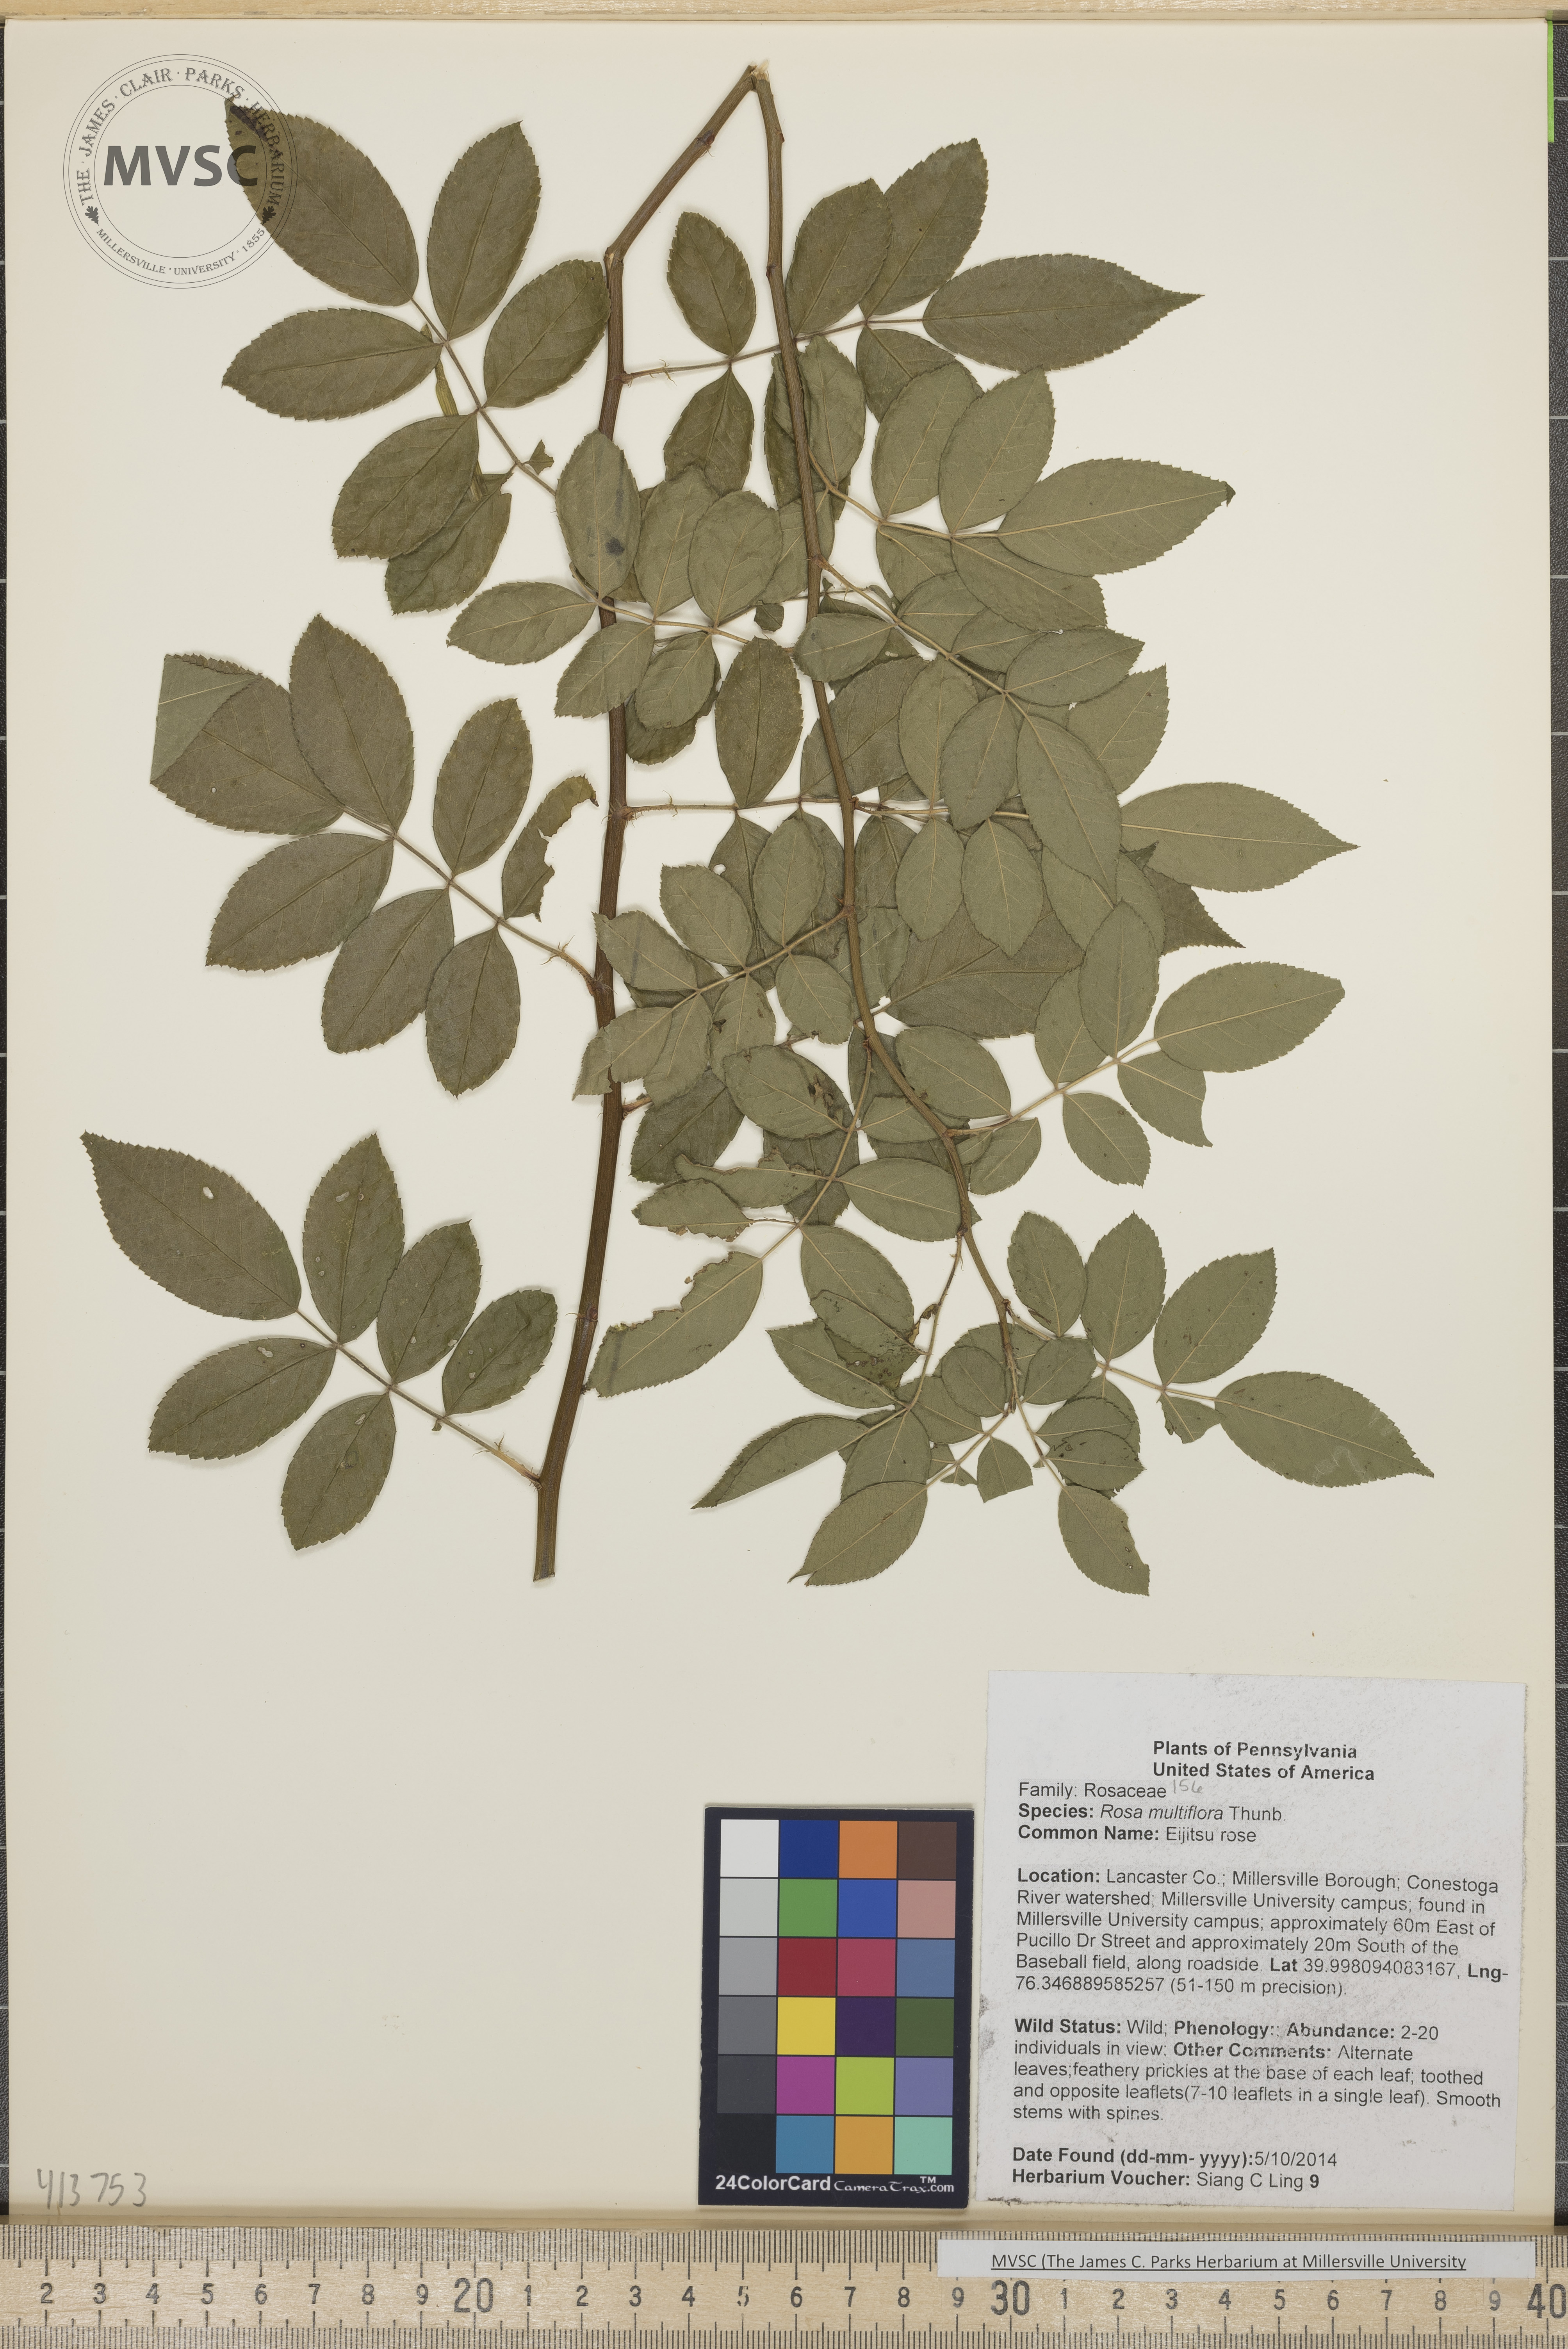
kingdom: Plantae
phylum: Tracheophyta
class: Magnoliopsida
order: Rosales
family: Rosaceae
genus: Rosa
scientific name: Rosa multiflora
